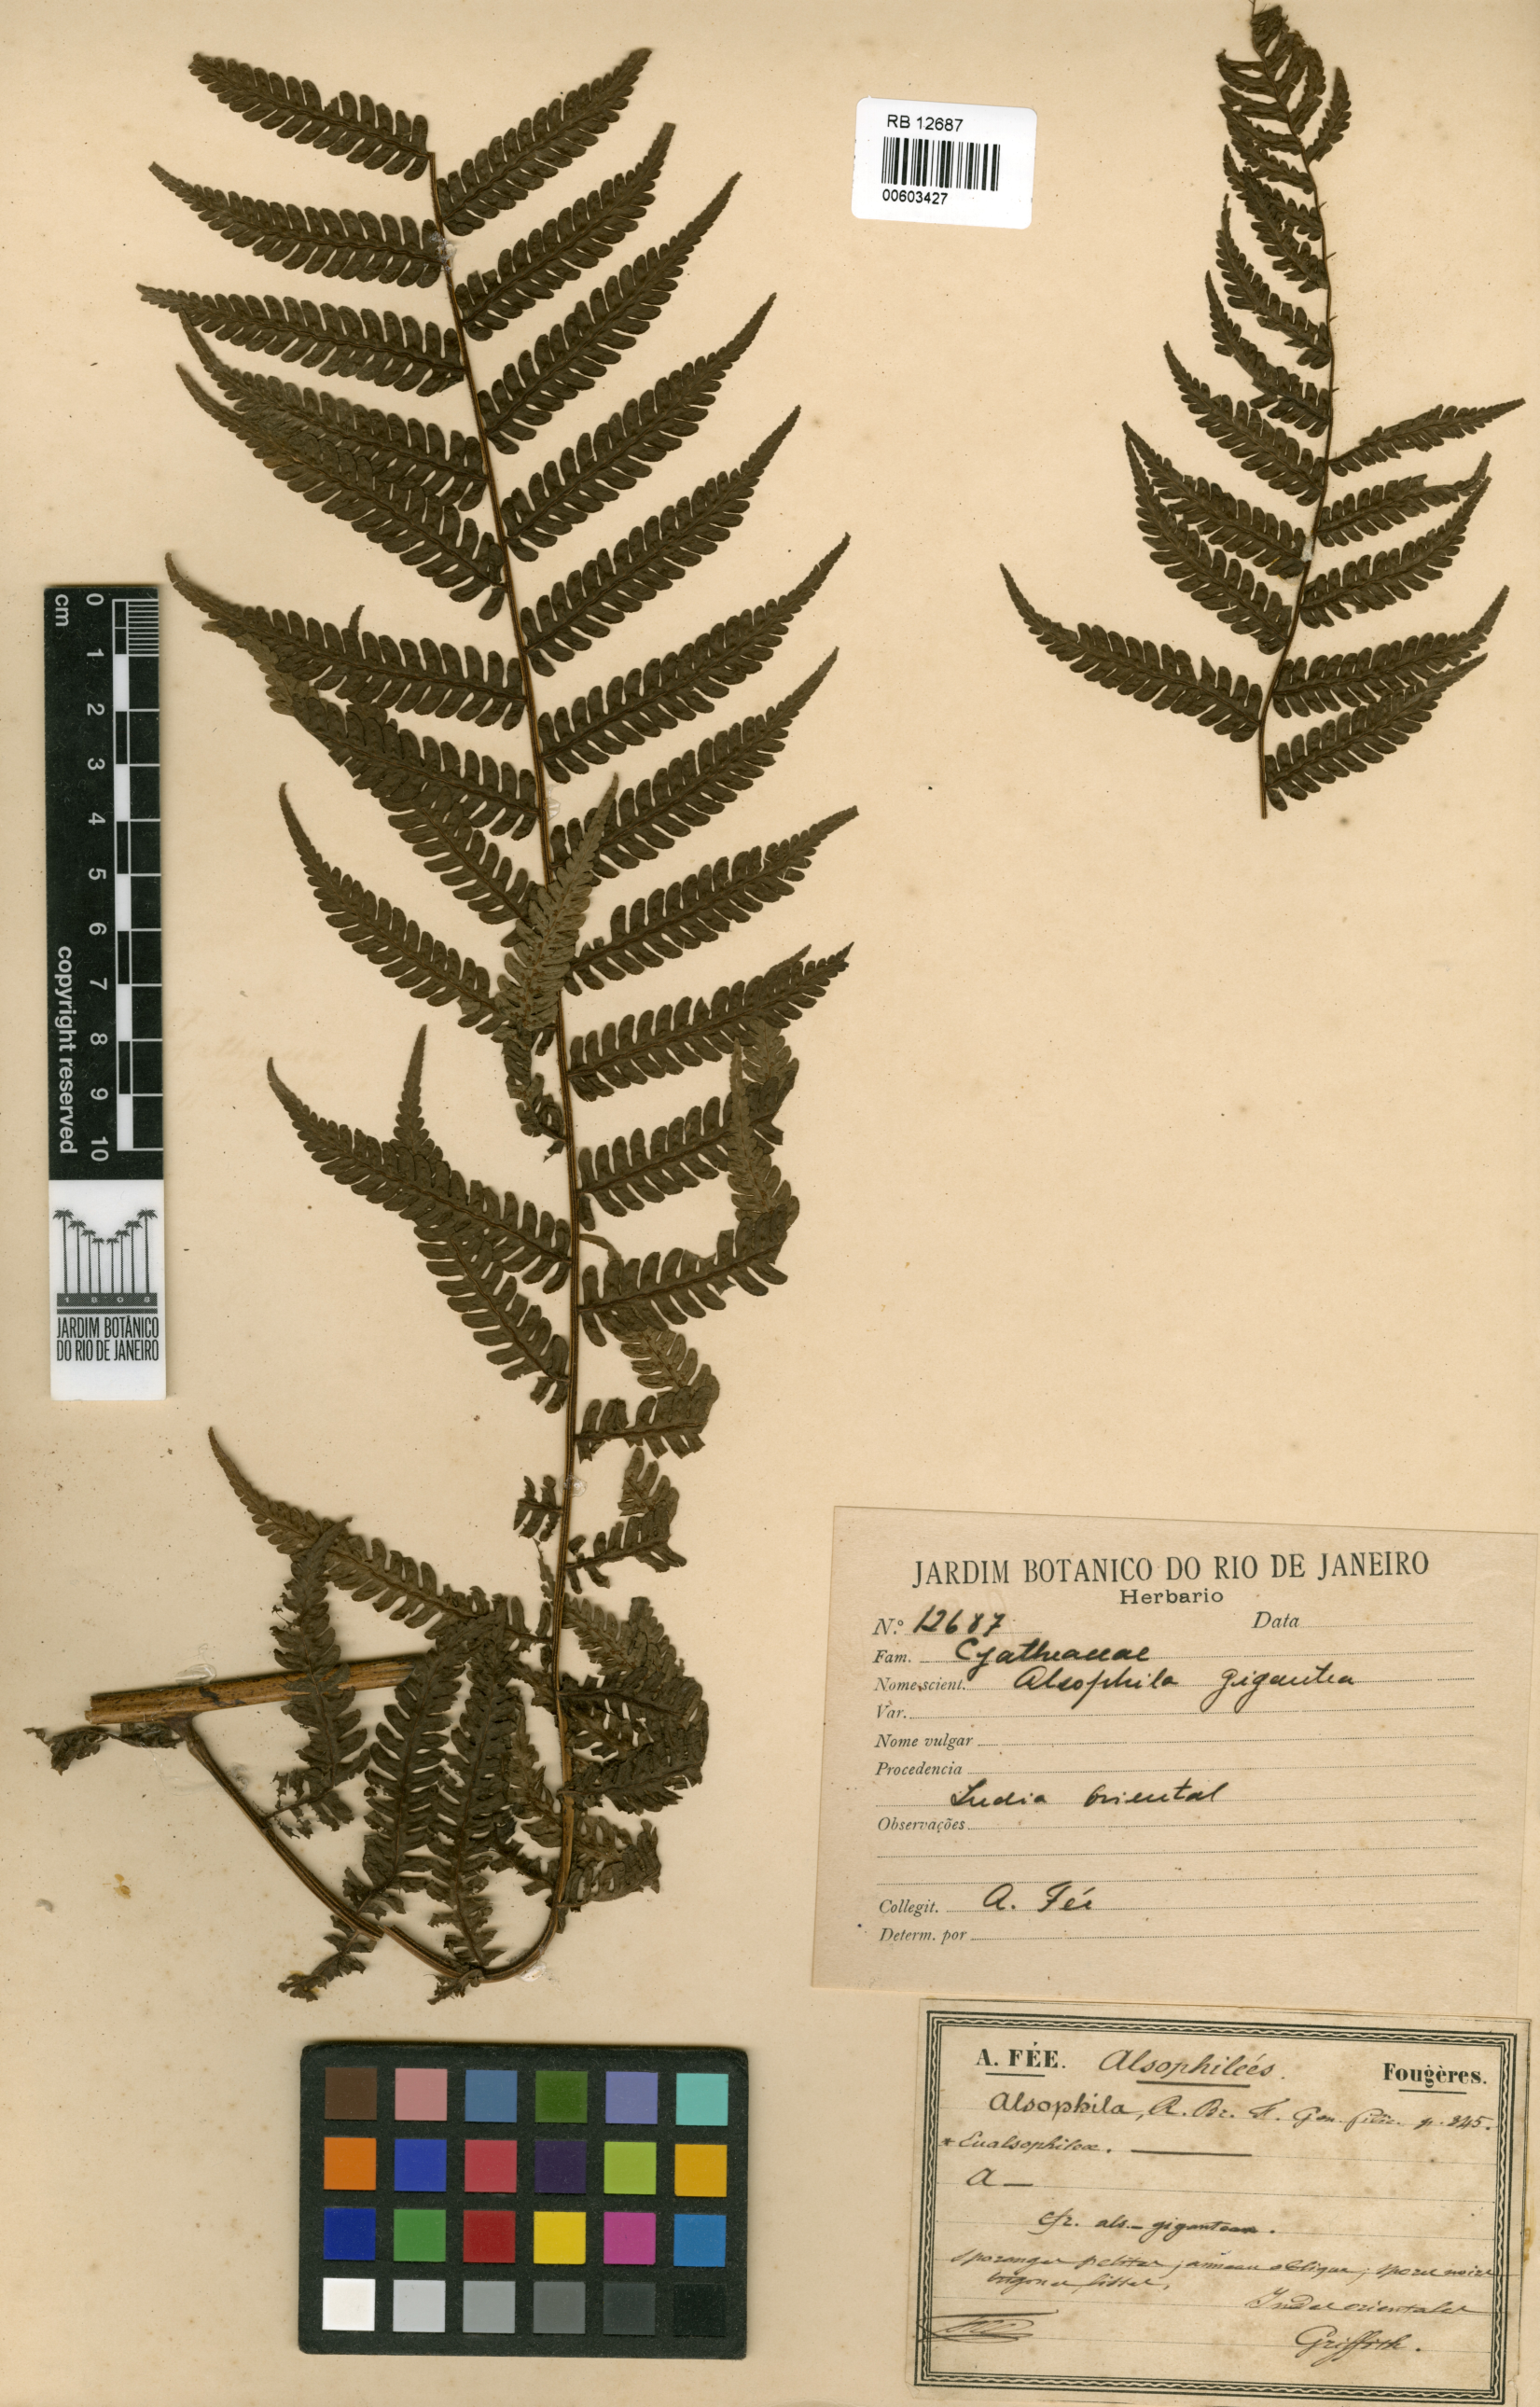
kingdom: Plantae
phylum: Tracheophyta
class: Polypodiopsida
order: Cyatheales
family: Cyatheaceae
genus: Alsophila
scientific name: Alsophila gigantea
